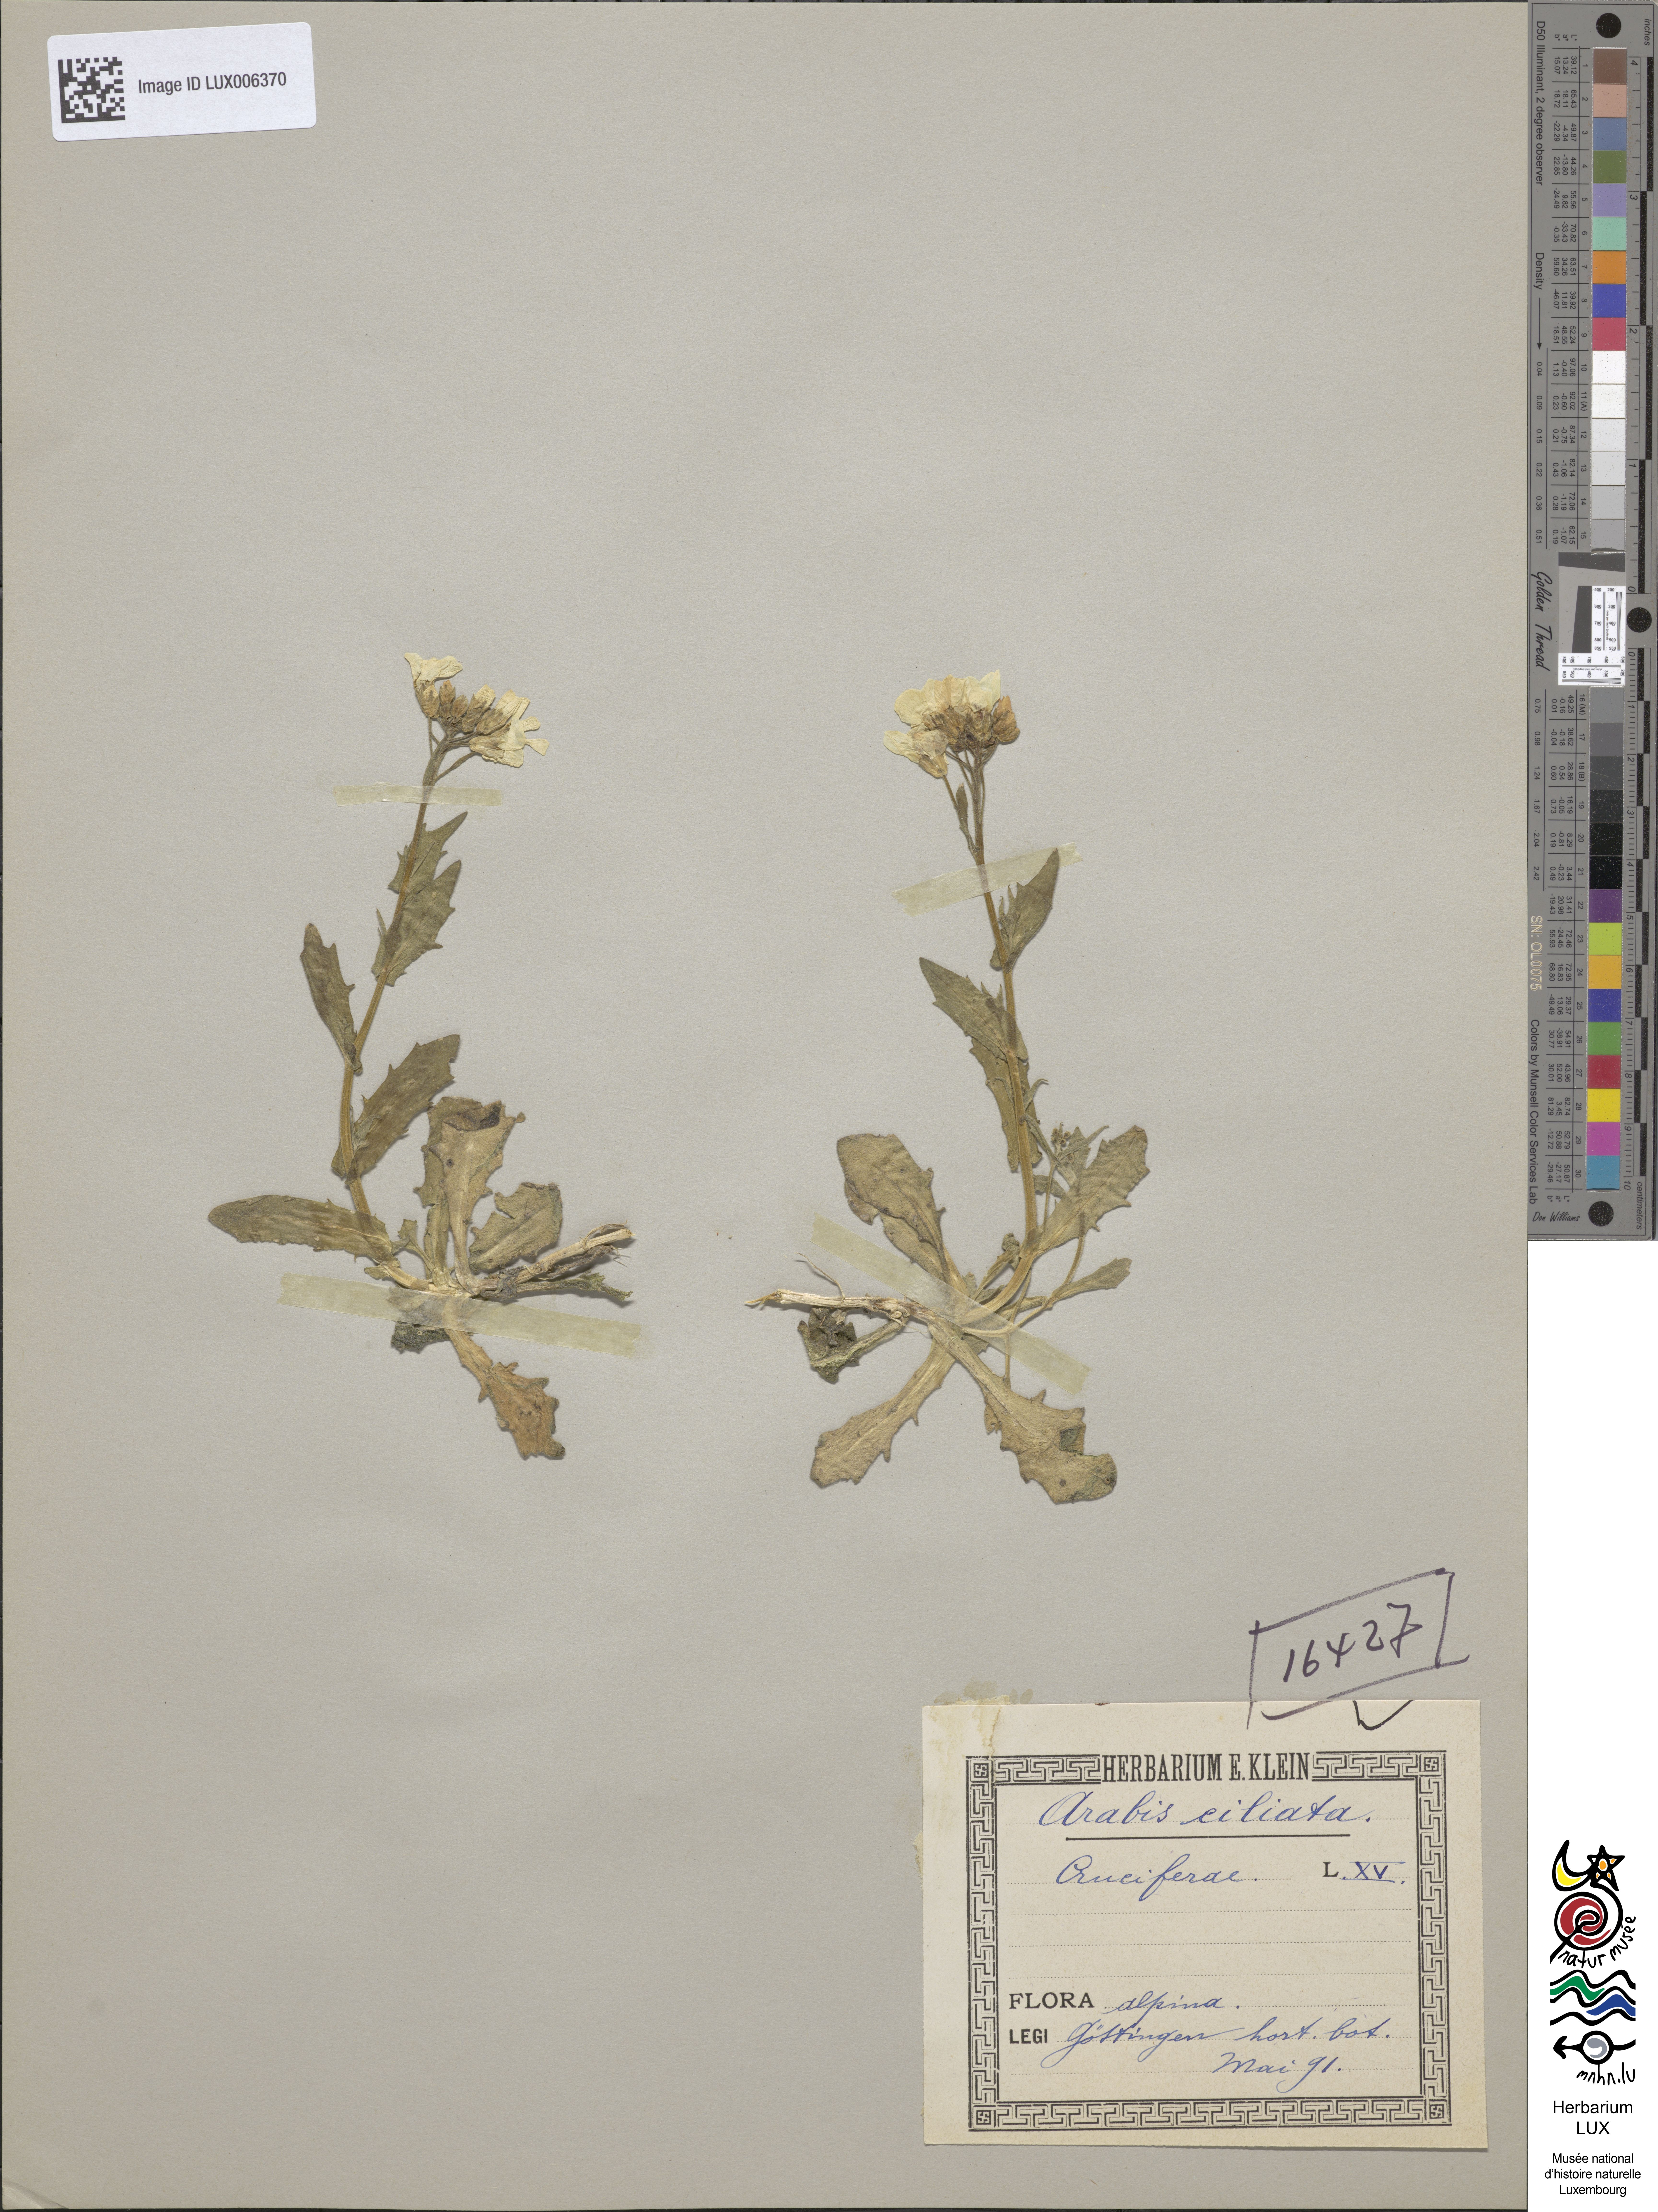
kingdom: Plantae
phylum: Tracheophyta
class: Magnoliopsida
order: Brassicales
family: Brassicaceae
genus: Arabis
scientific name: Arabis scopoliana
